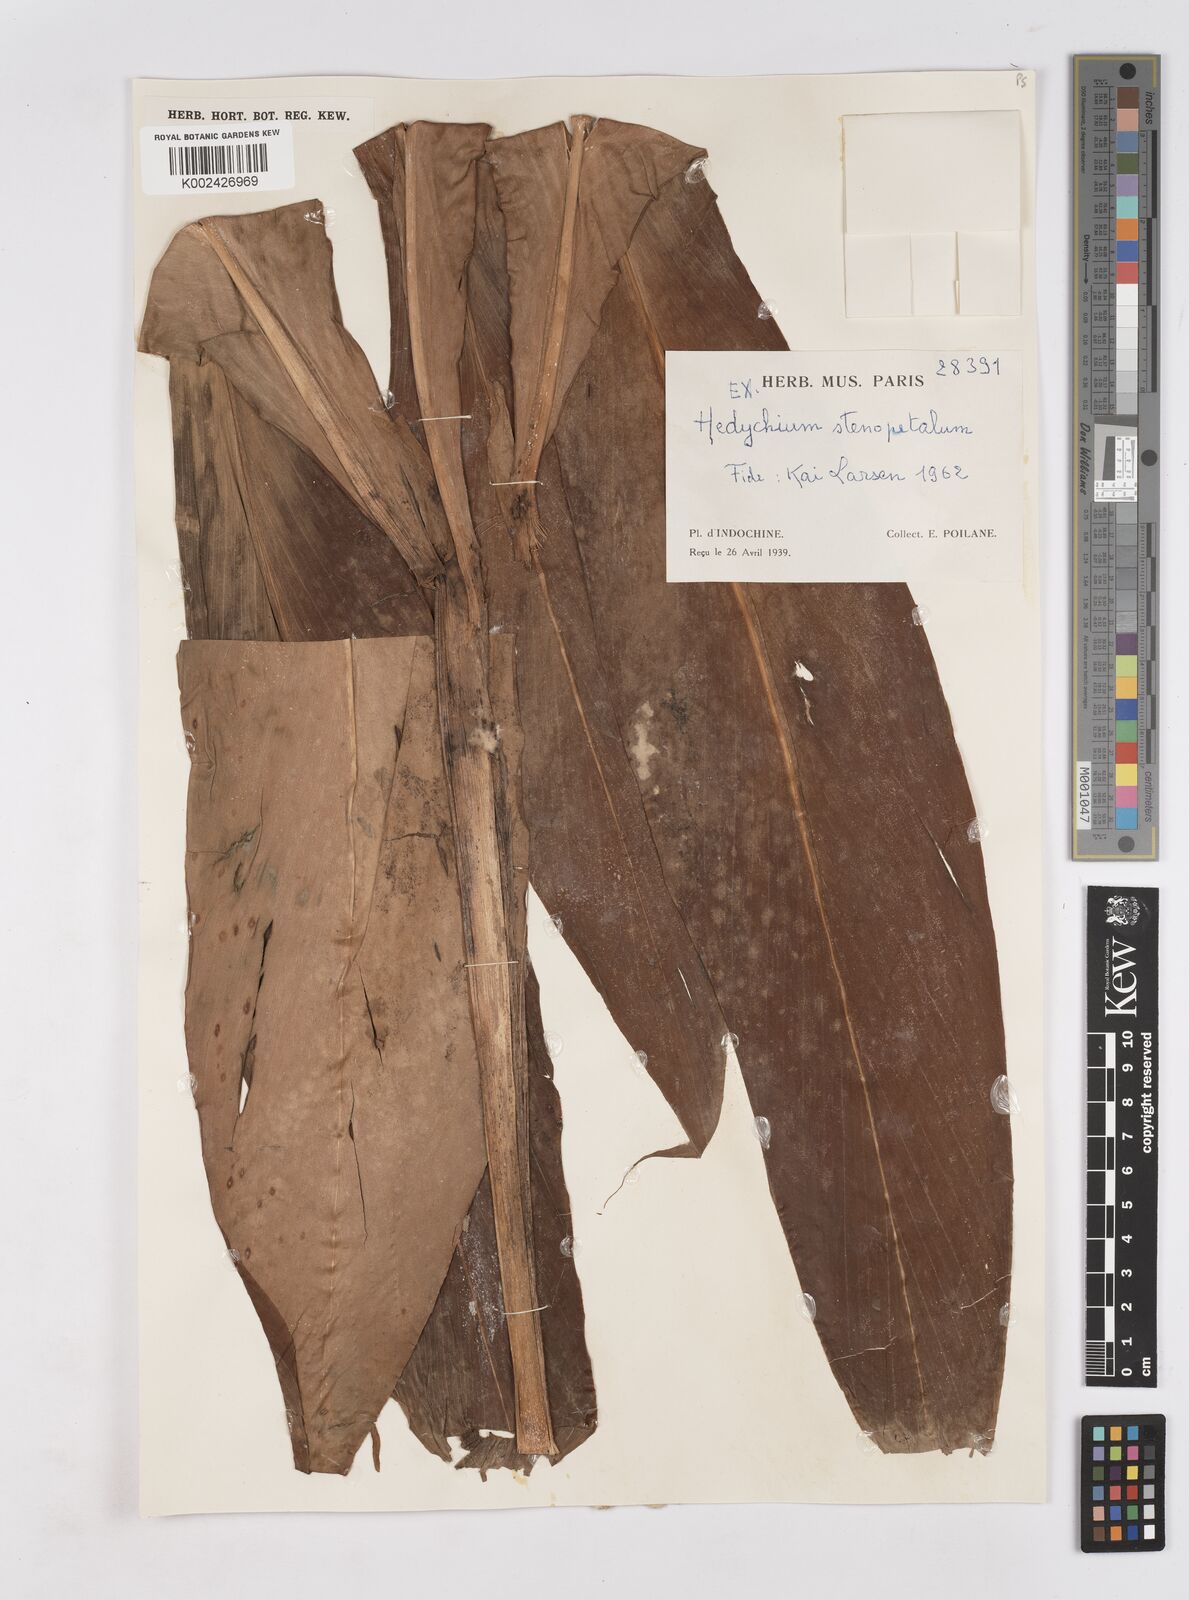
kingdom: Plantae
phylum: Tracheophyta
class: Liliopsida
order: Zingiberales
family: Zingiberaceae
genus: Hedychium
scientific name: Hedychium stenopetalum
